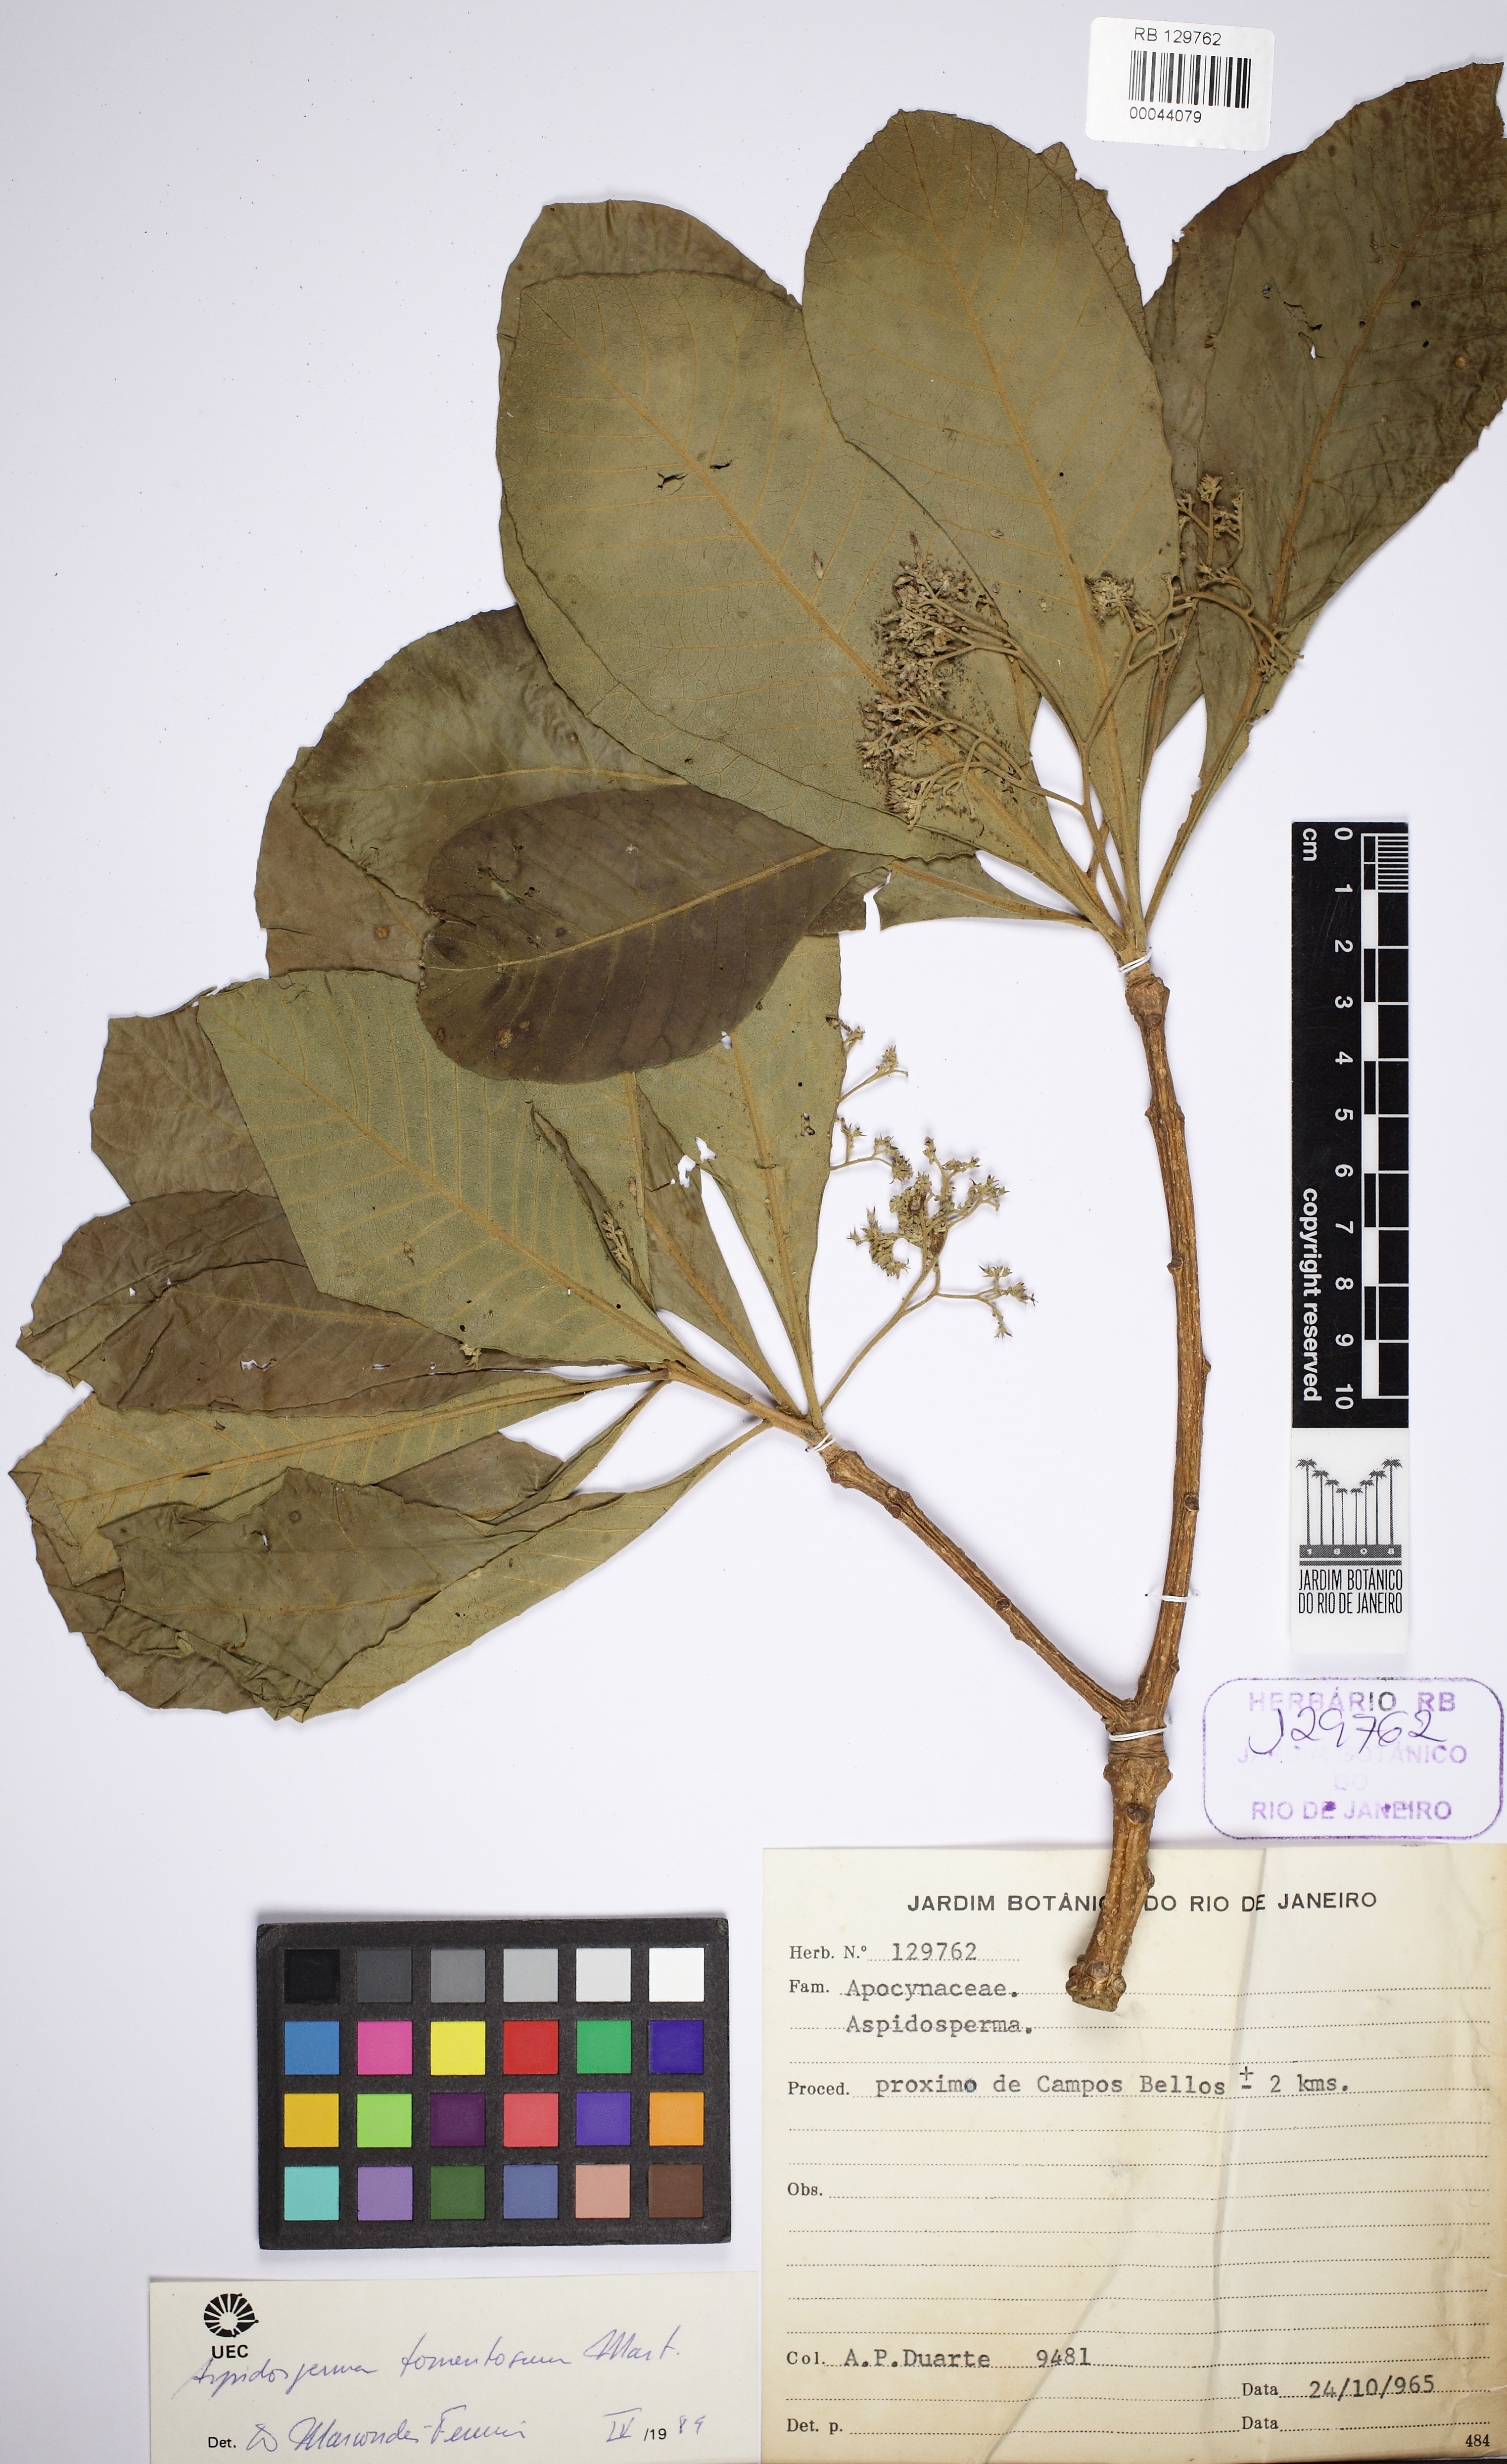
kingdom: Plantae
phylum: Tracheophyta
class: Magnoliopsida
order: Gentianales
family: Apocynaceae
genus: Aspidosperma
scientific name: Aspidosperma tomentosum
